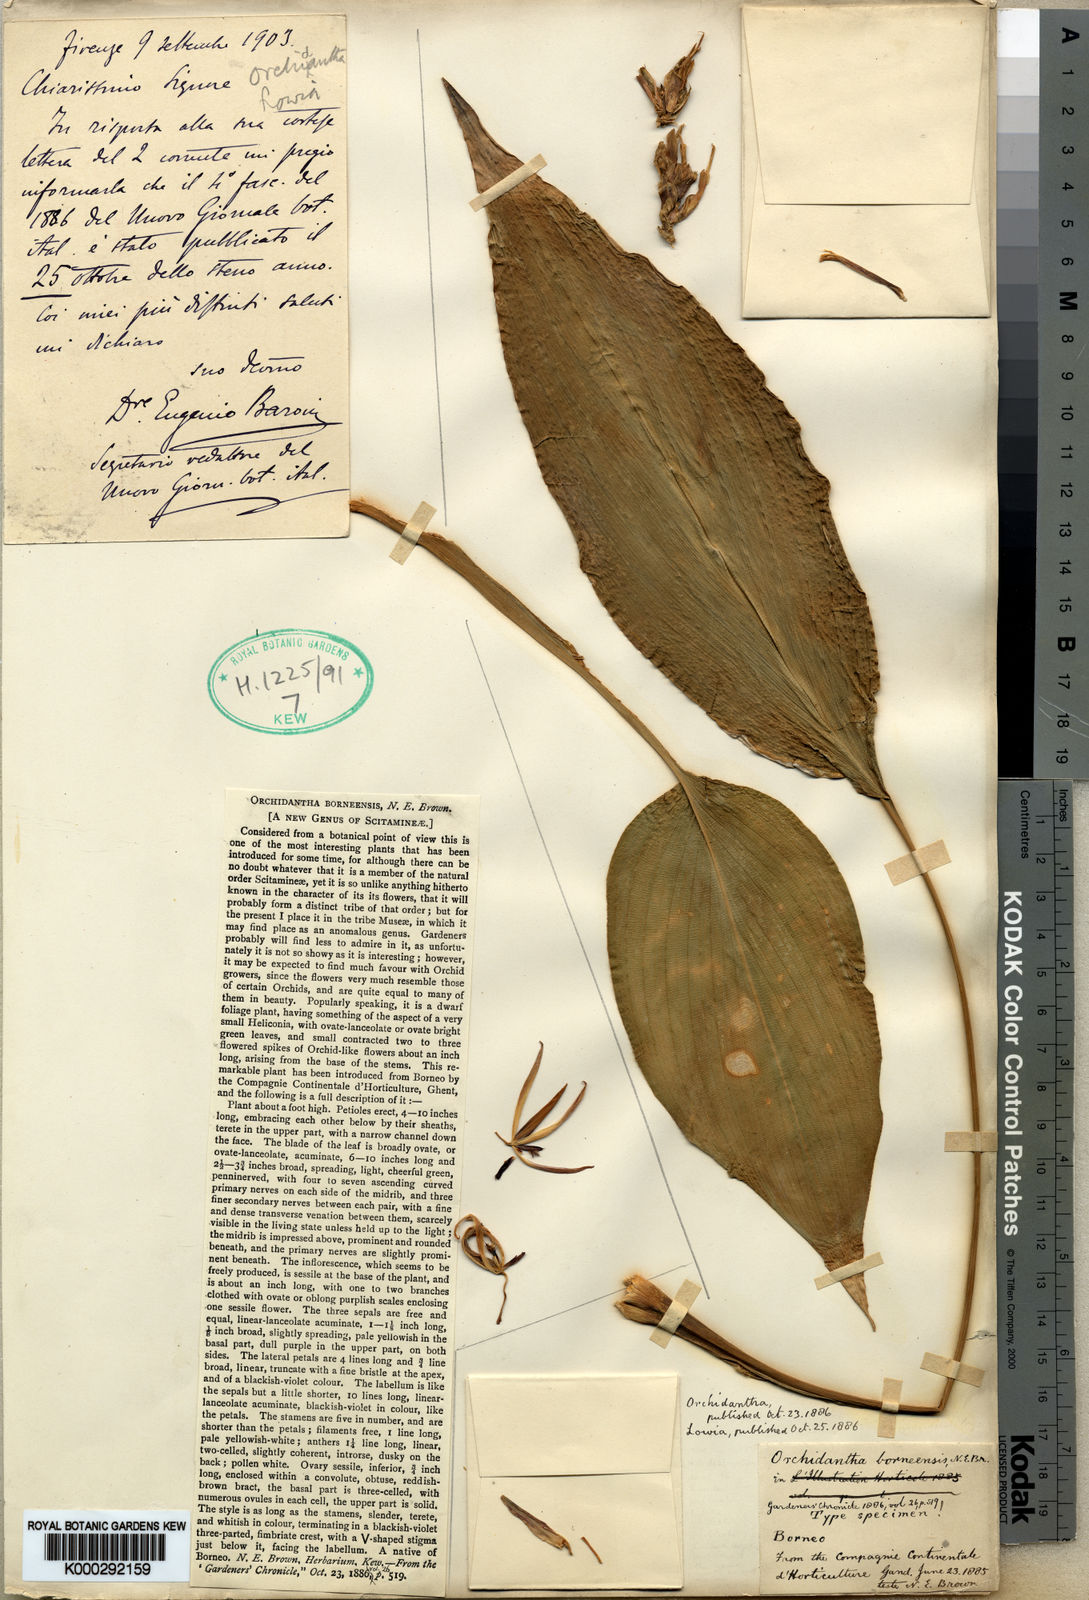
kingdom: Plantae
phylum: Tracheophyta
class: Liliopsida
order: Zingiberales
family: Lowiaceae
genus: Orchidantha
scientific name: Orchidantha borneensis
